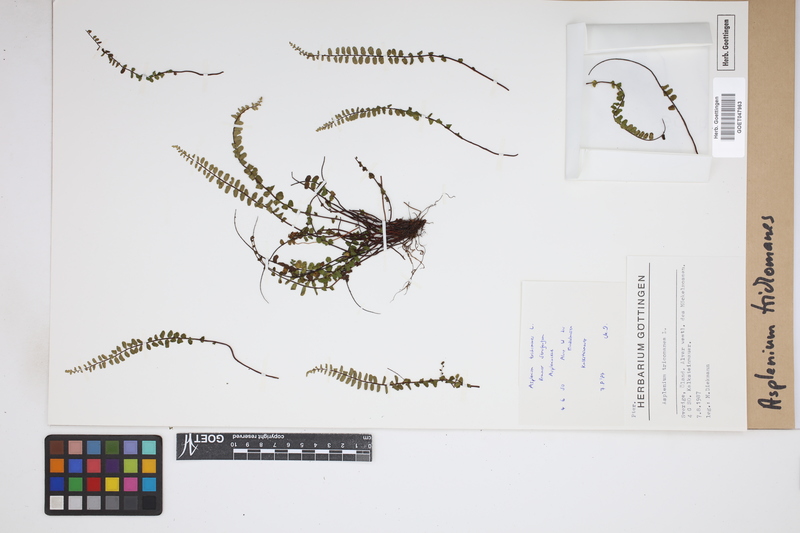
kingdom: Plantae
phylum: Tracheophyta
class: Polypodiopsida
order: Polypodiales
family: Aspleniaceae
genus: Asplenium
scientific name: Asplenium trichomanes
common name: Maidenhair spleenwort
